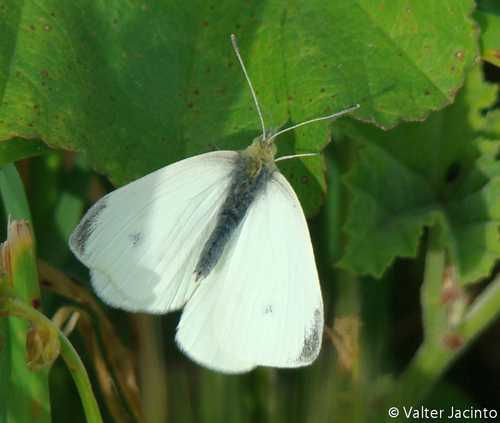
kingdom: Animalia
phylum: Arthropoda
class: Insecta
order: Lepidoptera
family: Pieridae
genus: Pieris
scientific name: Pieris rapae
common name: Small white
